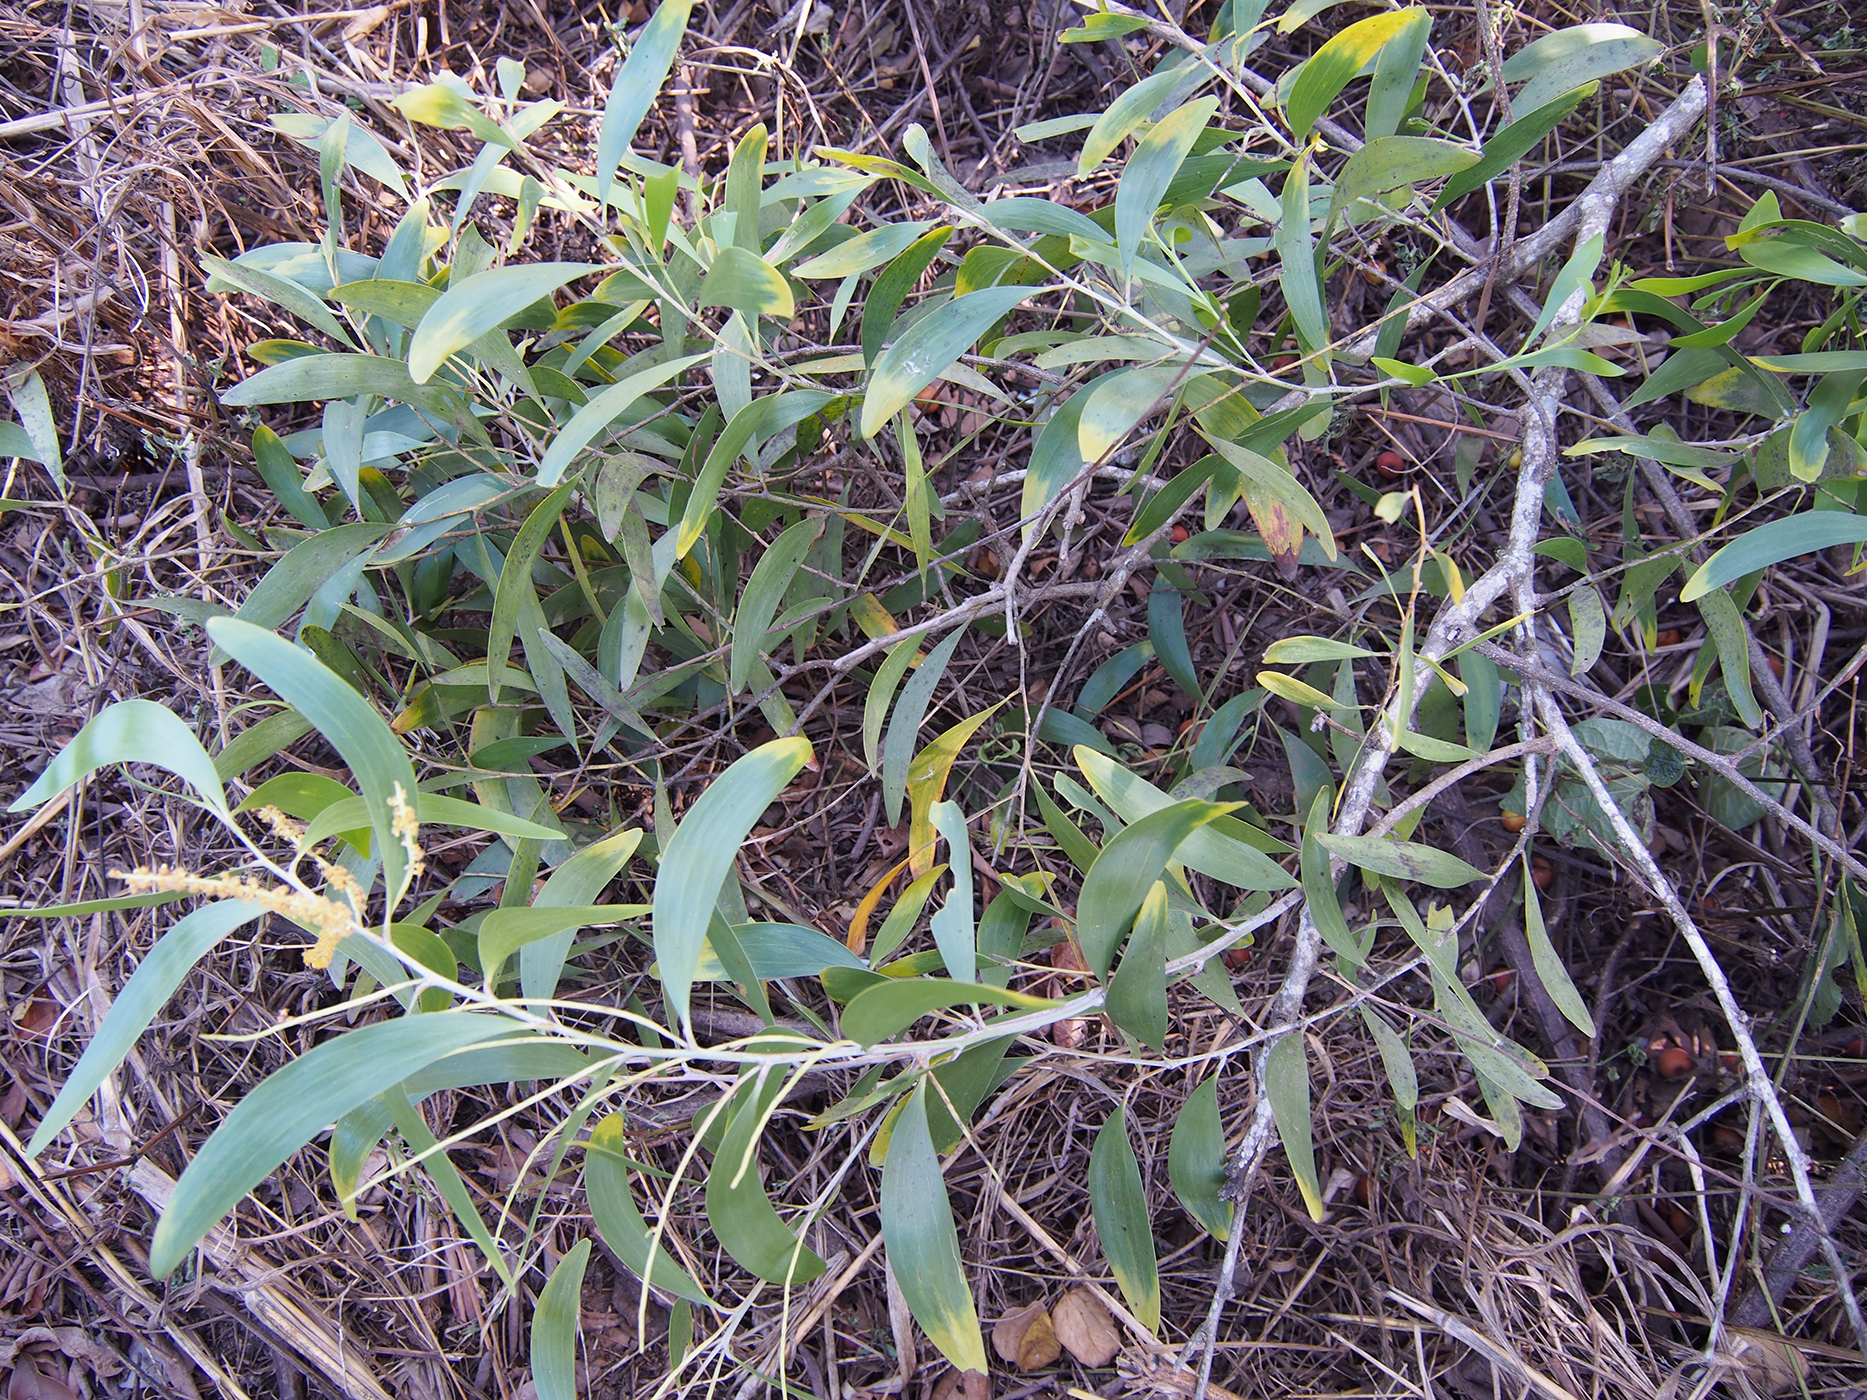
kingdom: Plantae
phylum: Tracheophyta
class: Magnoliopsida
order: Fabales
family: Fabaceae
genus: Acacia
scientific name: Acacia auriculiformis
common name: Earleaf acacia
